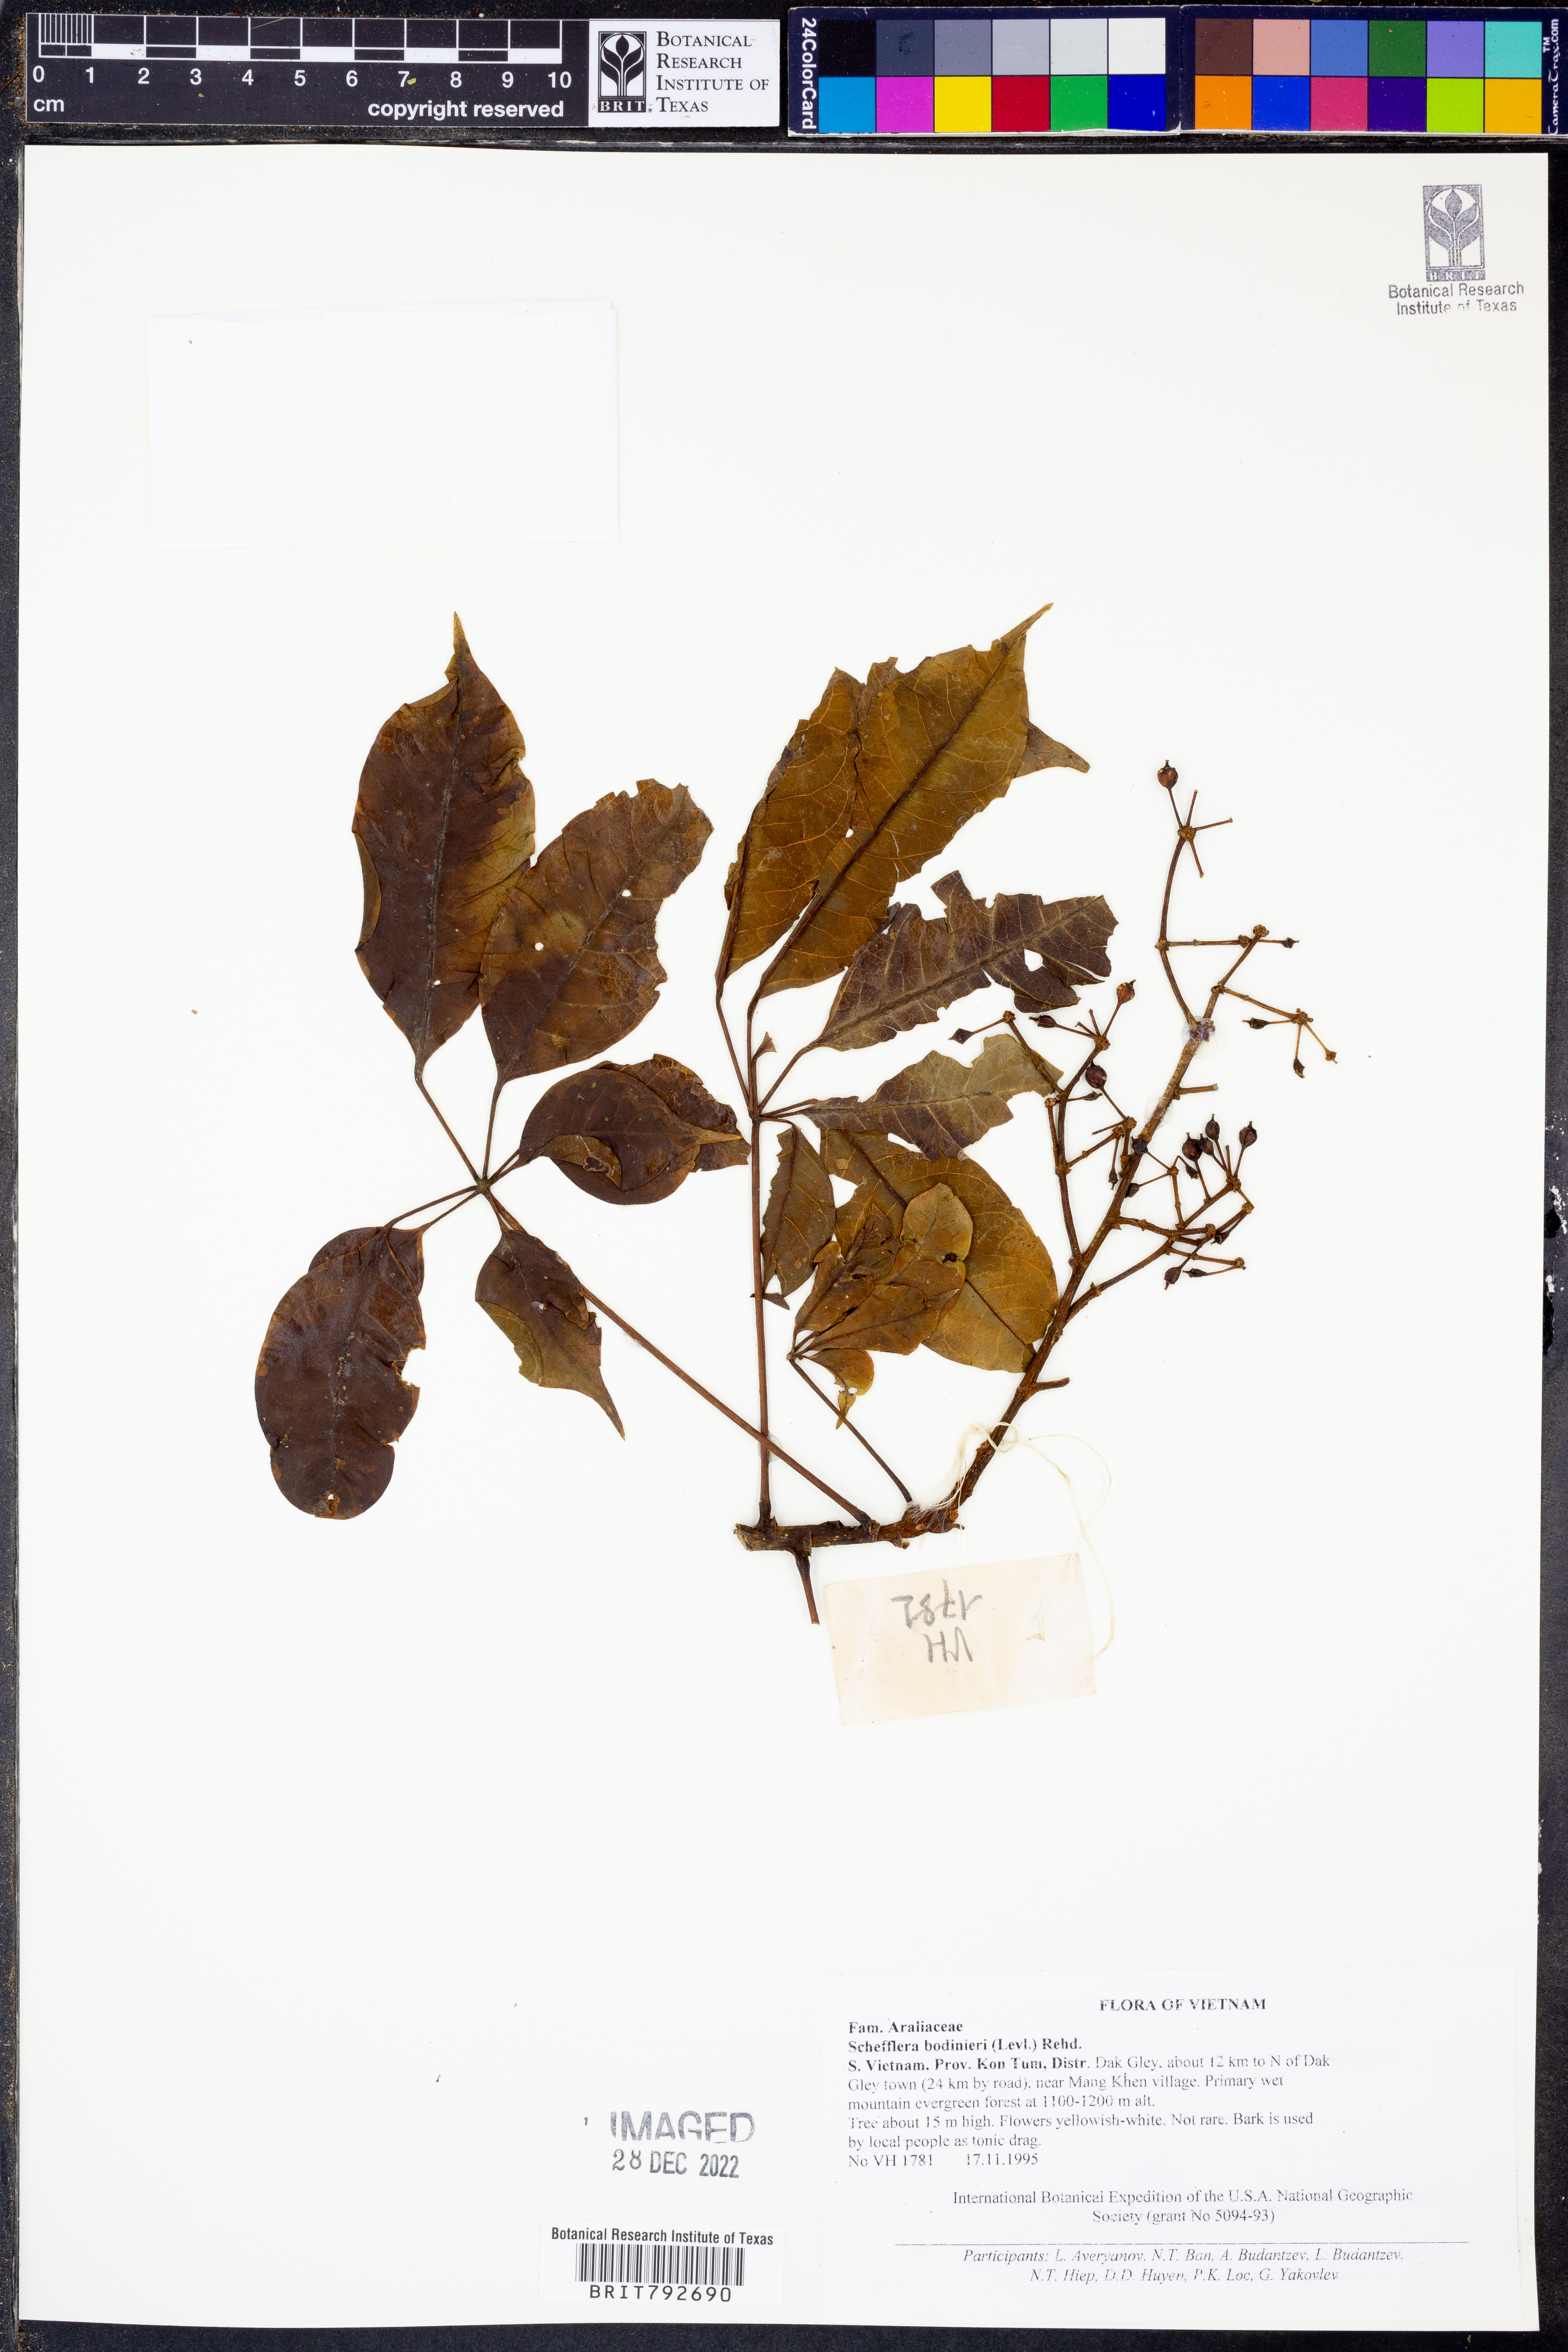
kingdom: Plantae
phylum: Tracheophyta
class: Magnoliopsida
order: Apiales
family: Araliaceae
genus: Heptapleurum
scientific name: Heptapleurum bodinieri
